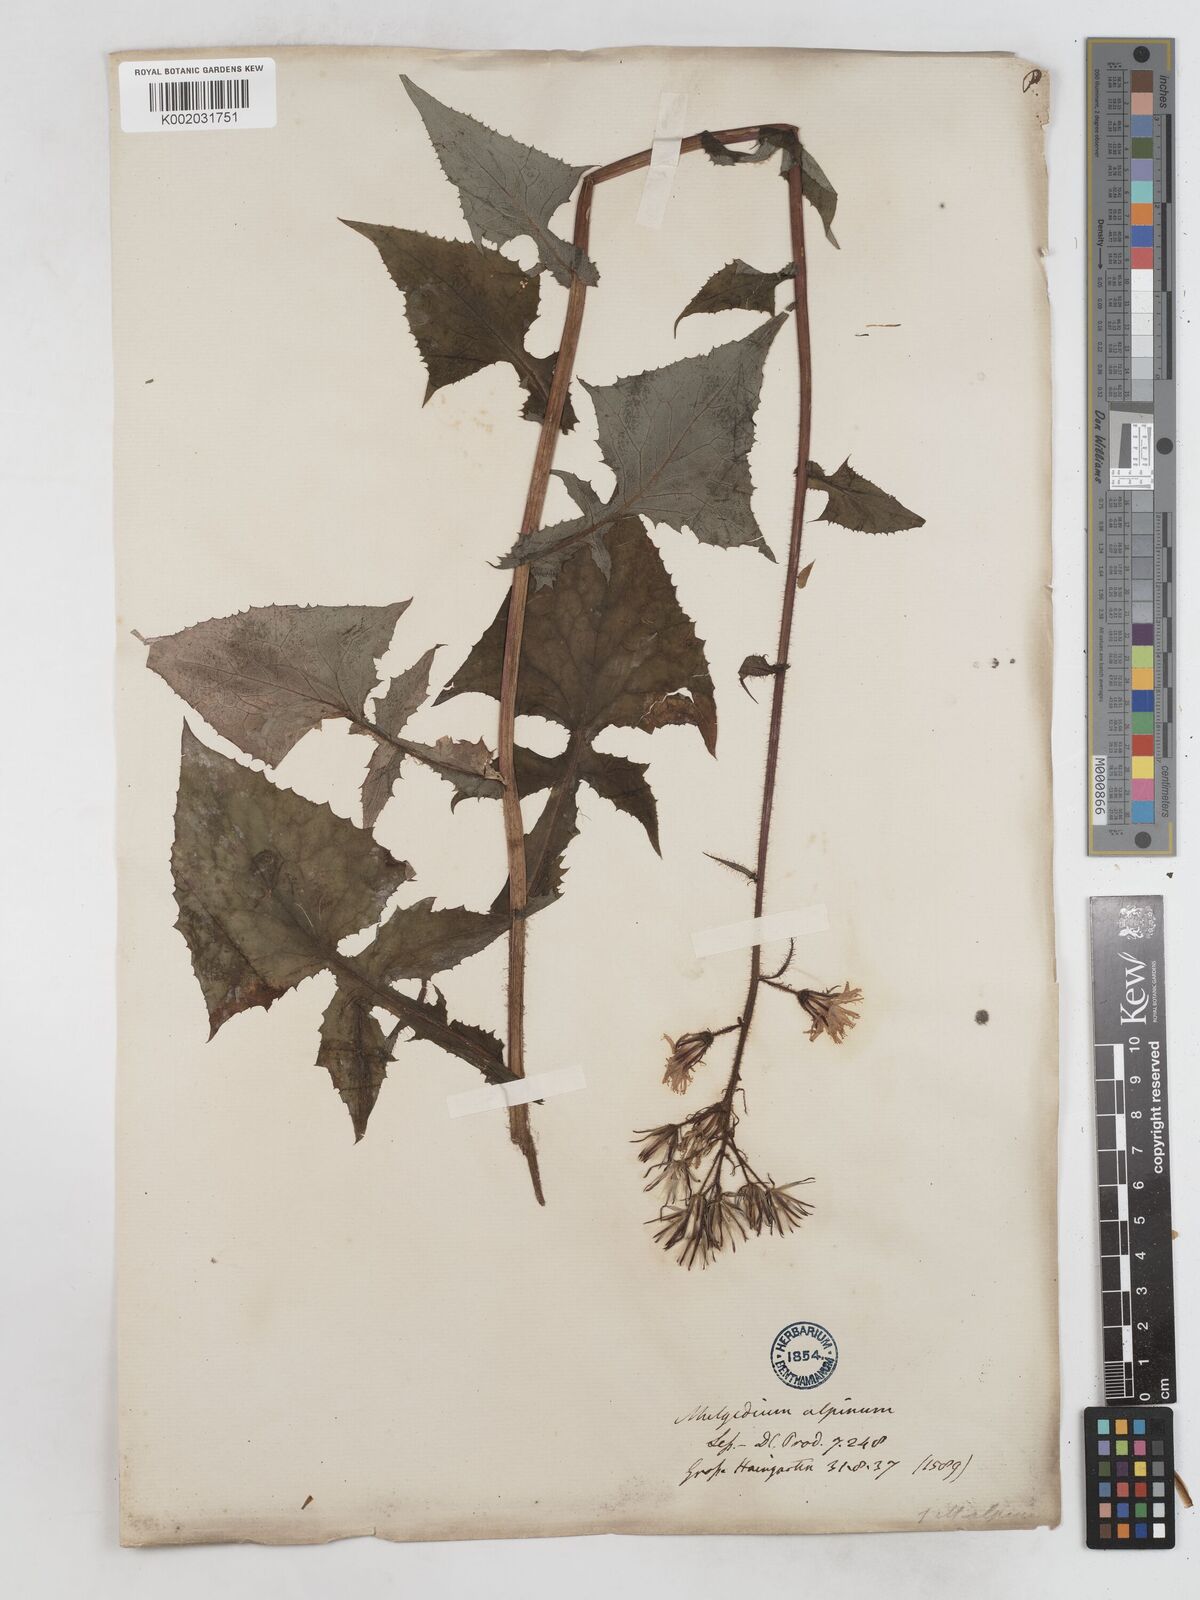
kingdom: Plantae
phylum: Tracheophyta
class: Magnoliopsida
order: Asterales
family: Asteraceae
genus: Cicerbita
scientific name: Cicerbita alpina
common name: Alpine blue-sow-thistle
